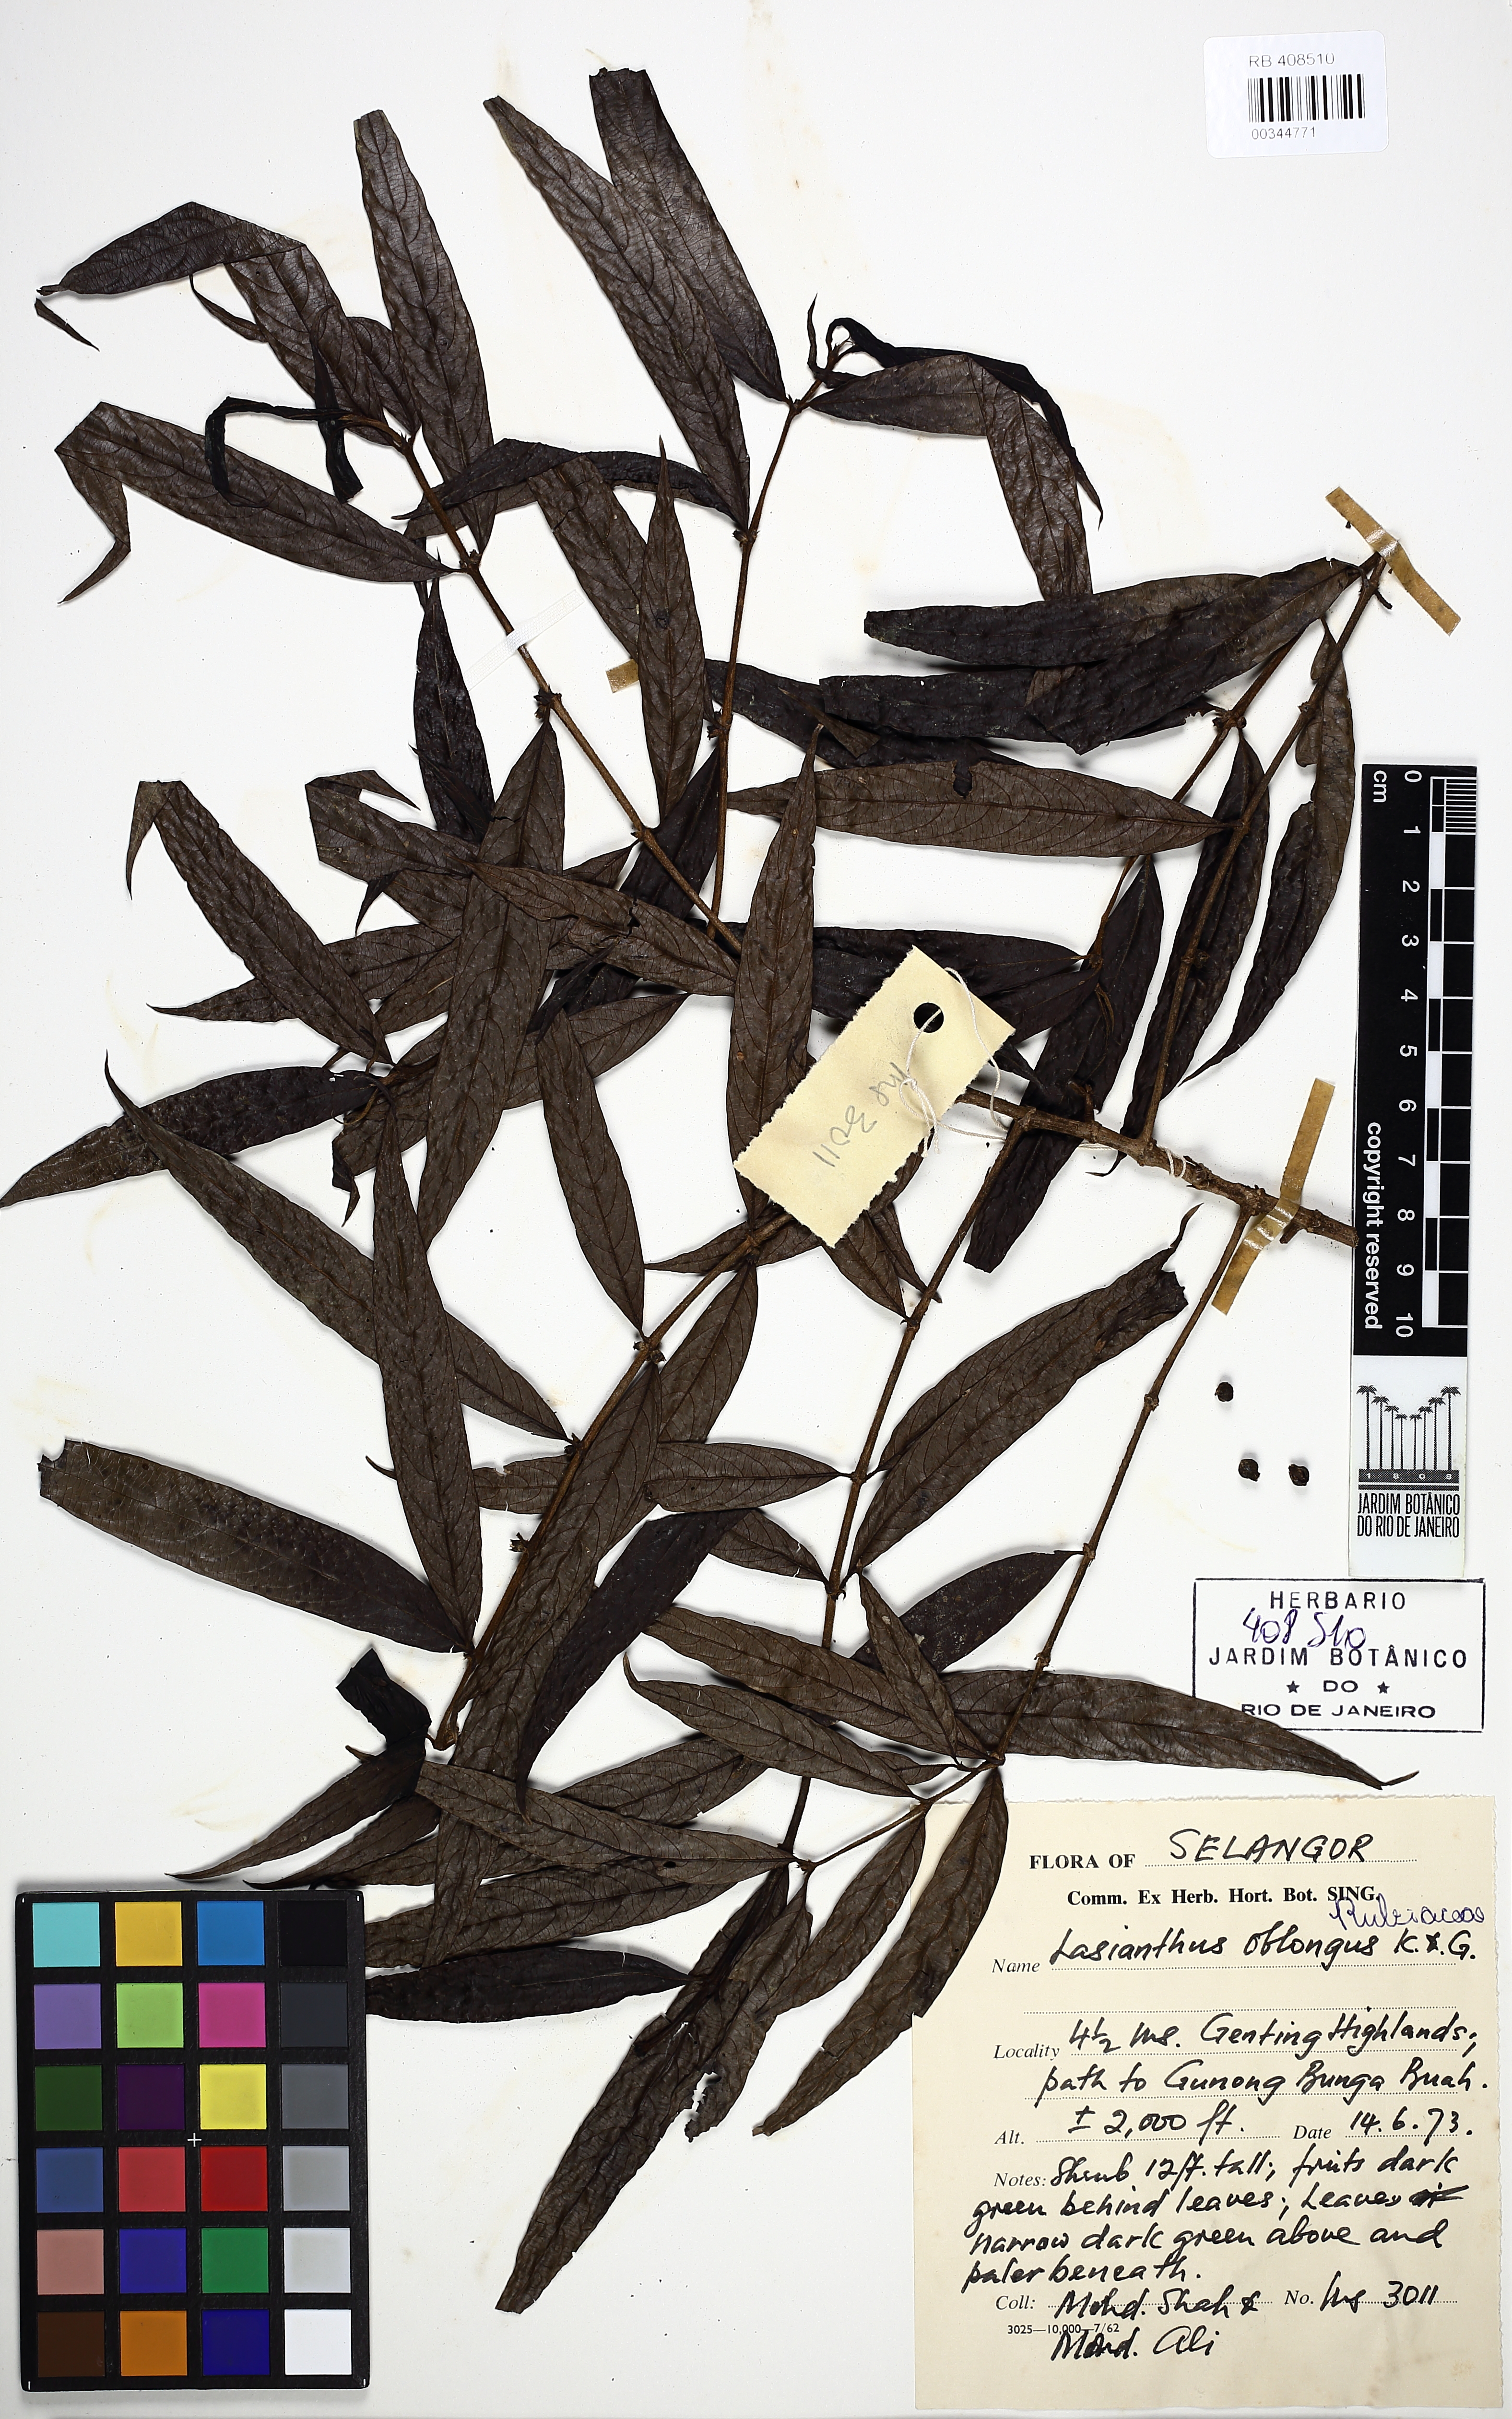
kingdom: Plantae
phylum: Tracheophyta
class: Magnoliopsida
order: Gentianales
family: Rubiaceae
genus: Lasianthus
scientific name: Lasianthus oblongus
